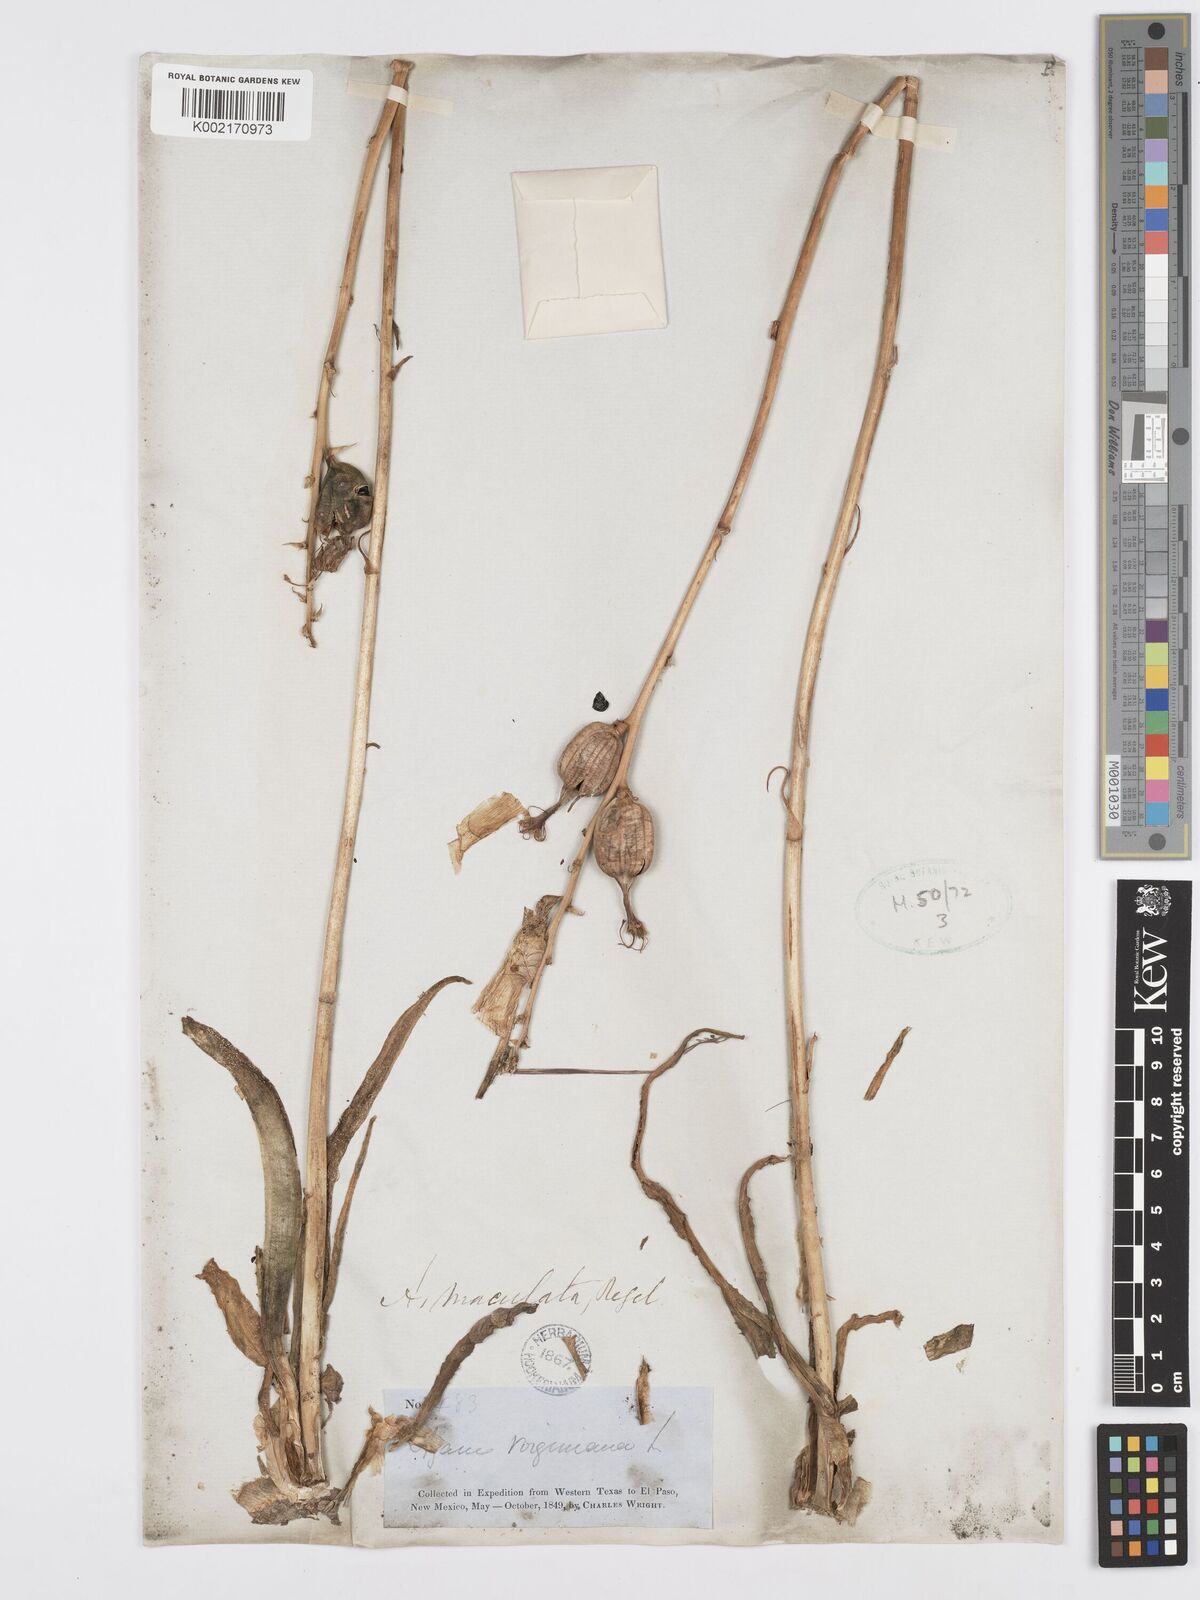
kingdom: Plantae
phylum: Tracheophyta
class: Liliopsida
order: Asparagales
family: Asparagaceae
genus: Agave
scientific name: Agave stictata
